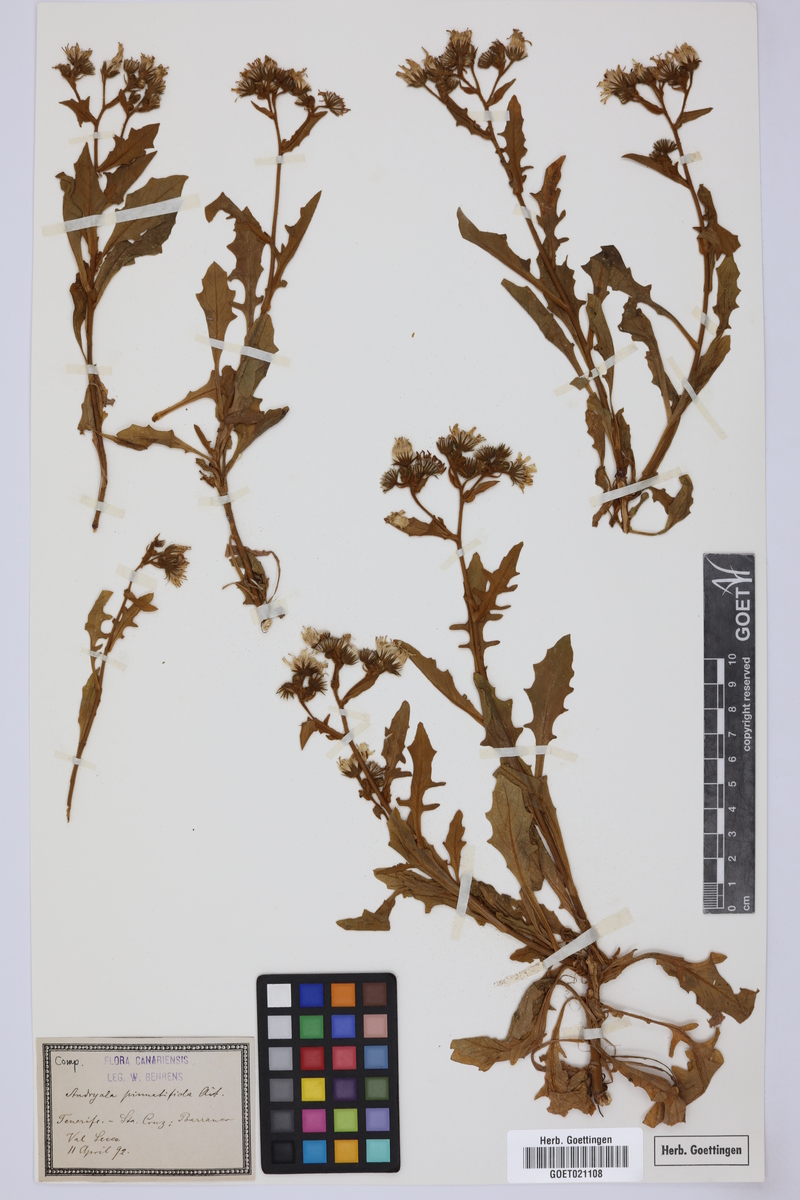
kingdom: Plantae
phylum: Tracheophyta
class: Magnoliopsida
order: Asterales
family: Asteraceae
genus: Andryala
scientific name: Andryala pinnatifida
